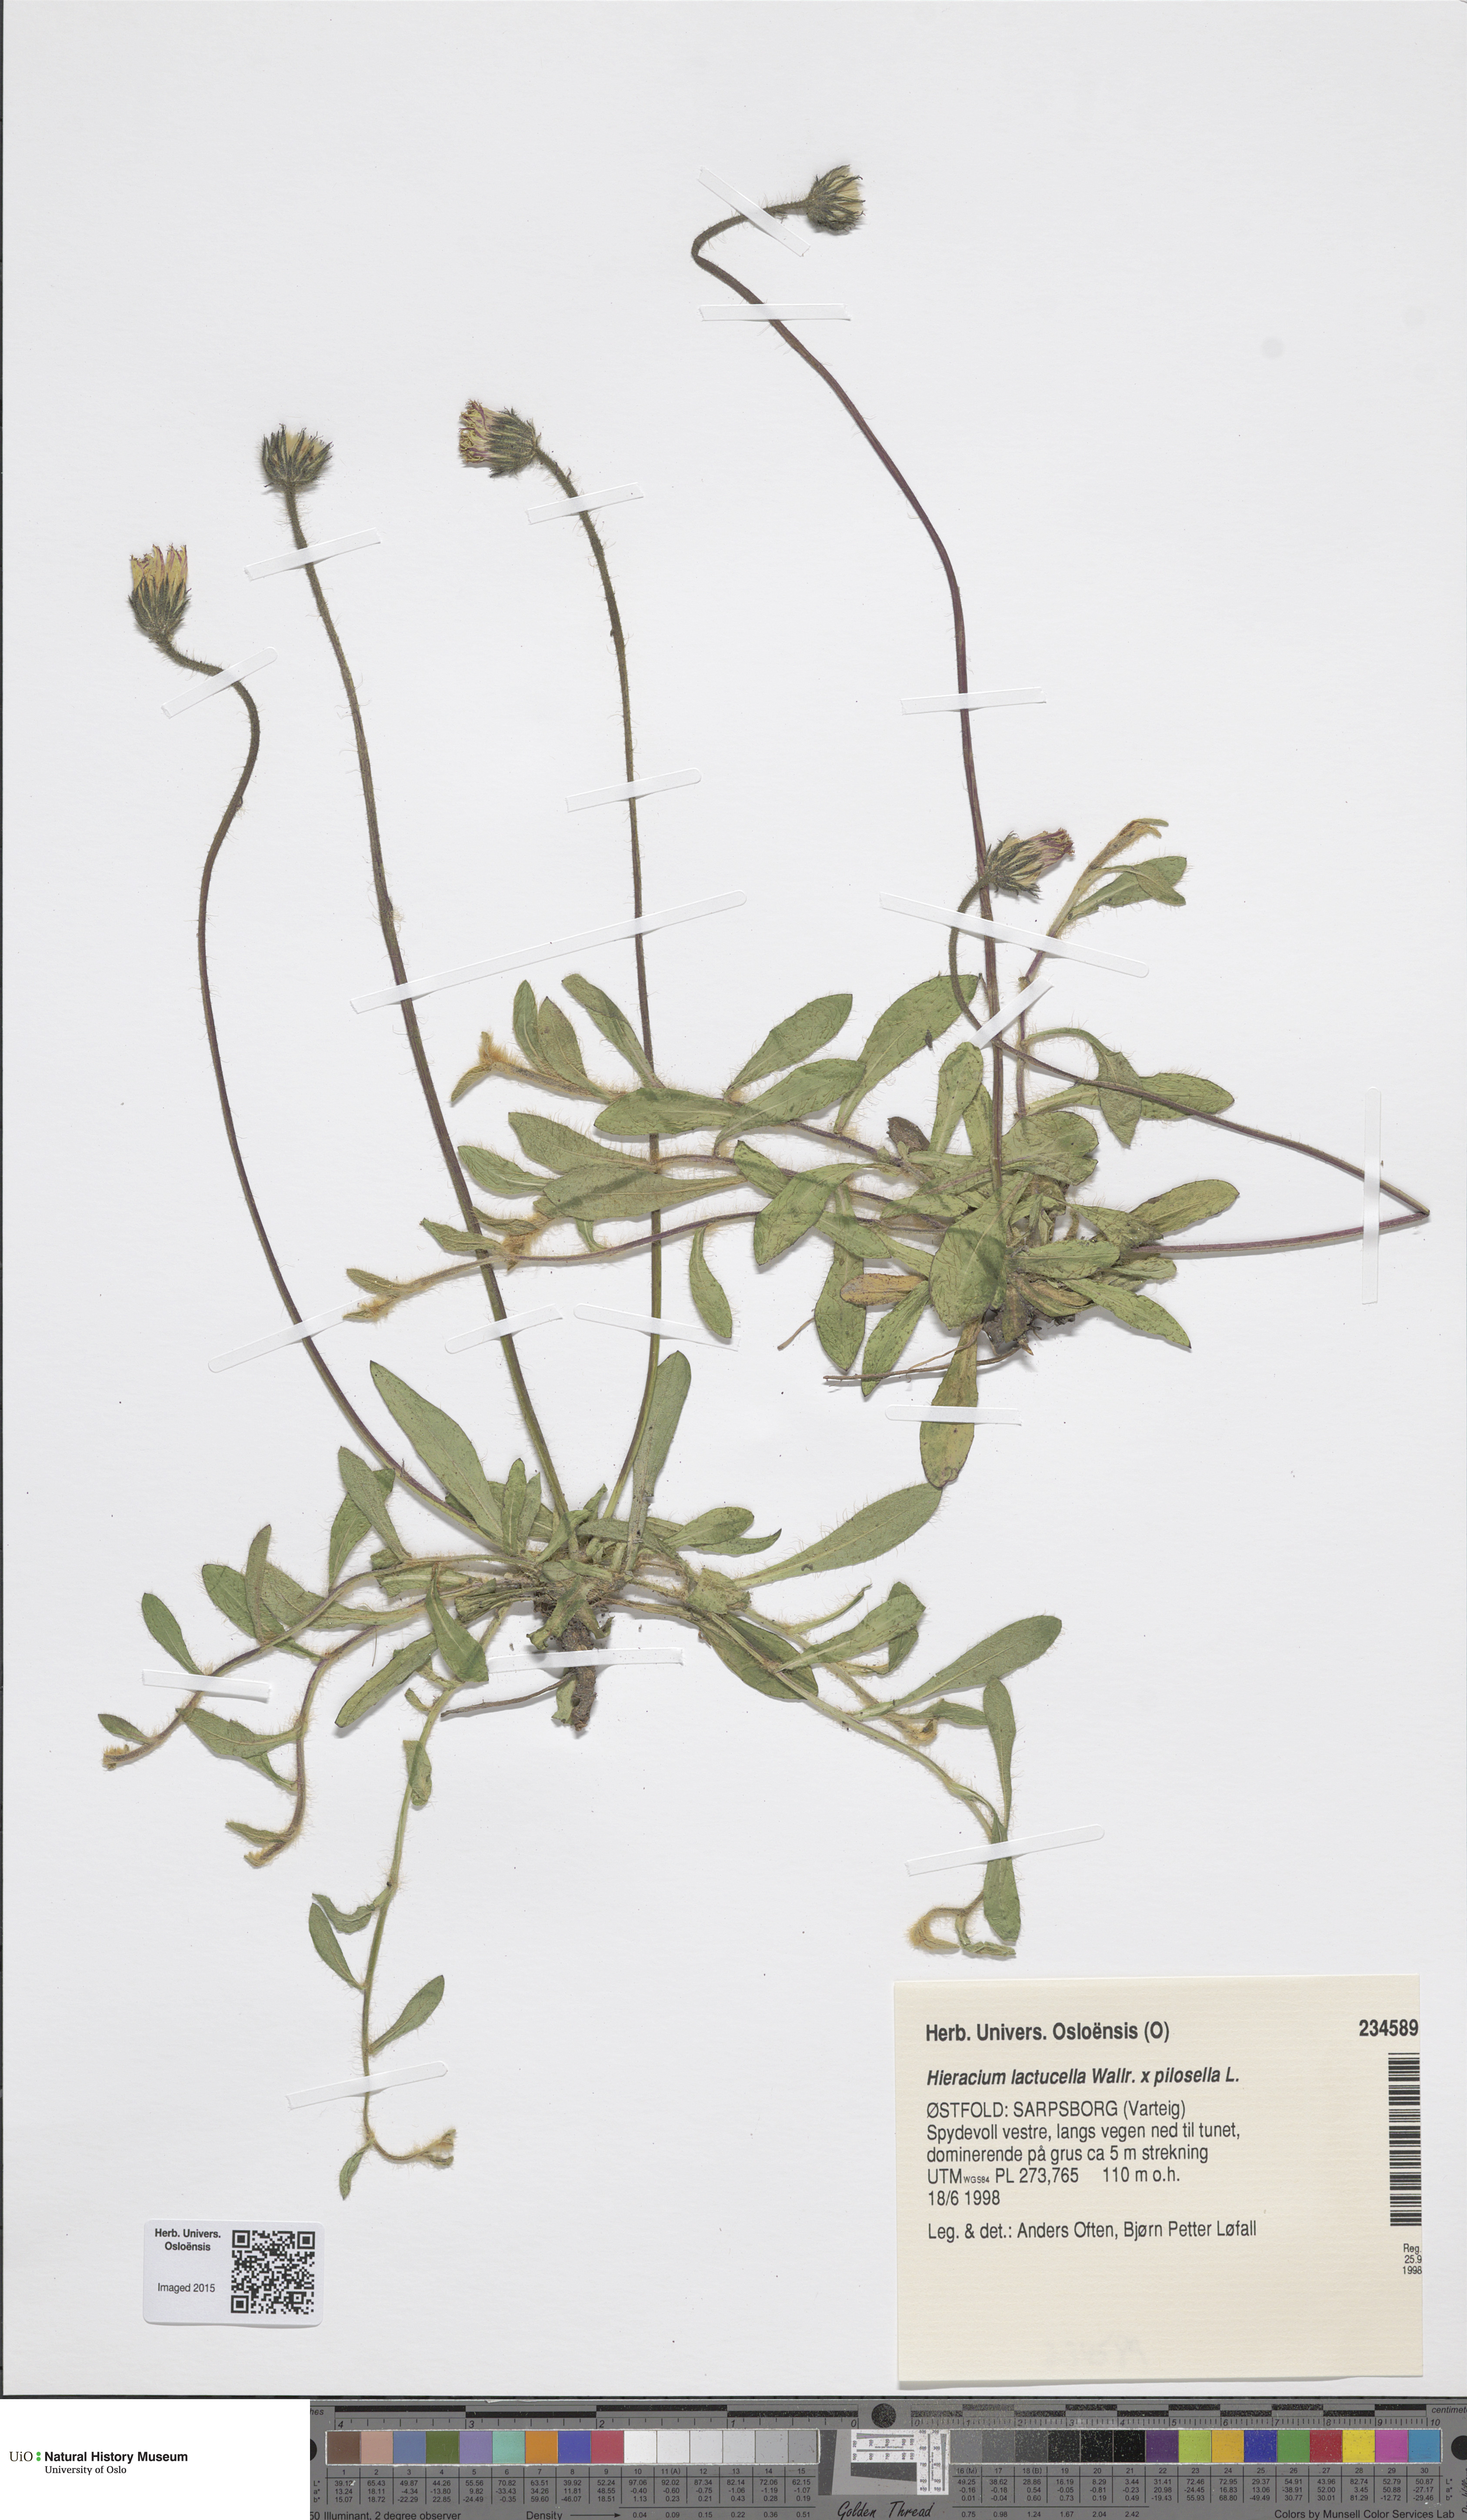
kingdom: Plantae
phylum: Tracheophyta
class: Magnoliopsida
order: Asterales
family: Asteraceae
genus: Pilosella
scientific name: Pilosella
